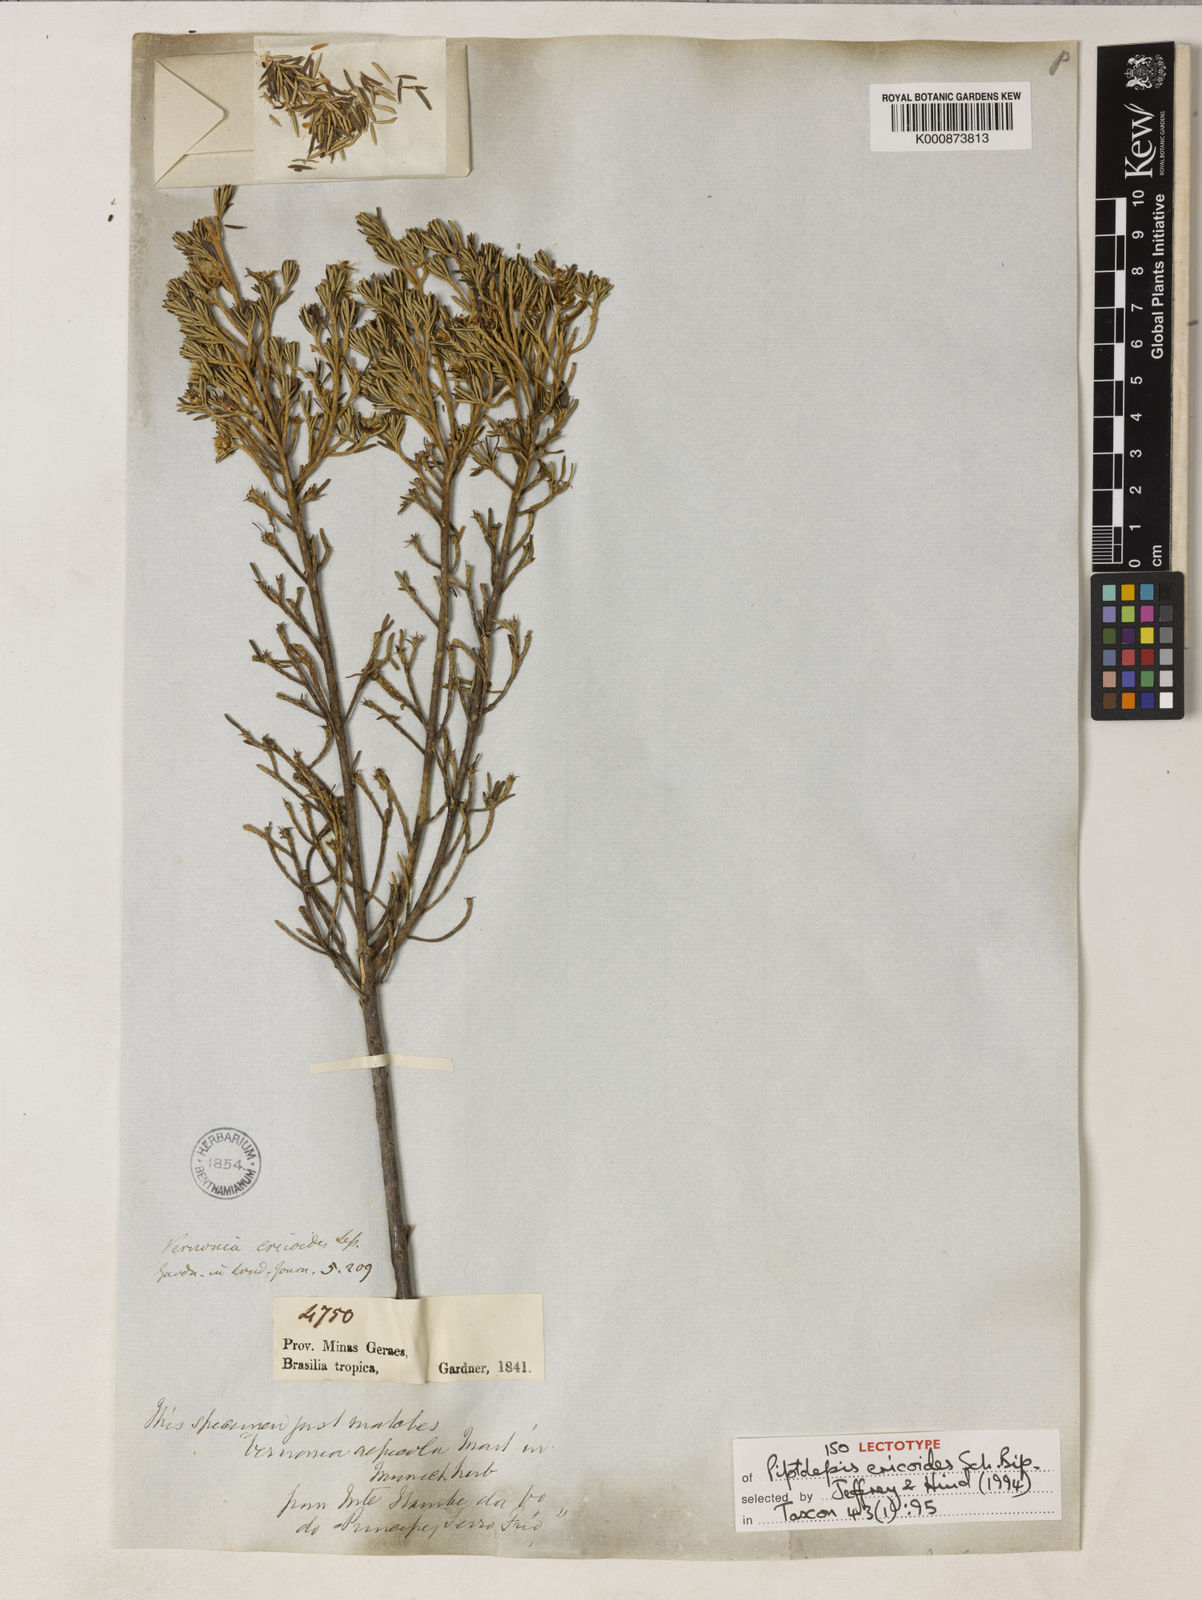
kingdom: Plantae
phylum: Tracheophyta
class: Magnoliopsida
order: Asterales
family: Asteraceae
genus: Piptolepis
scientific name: Piptolepis ericoides
